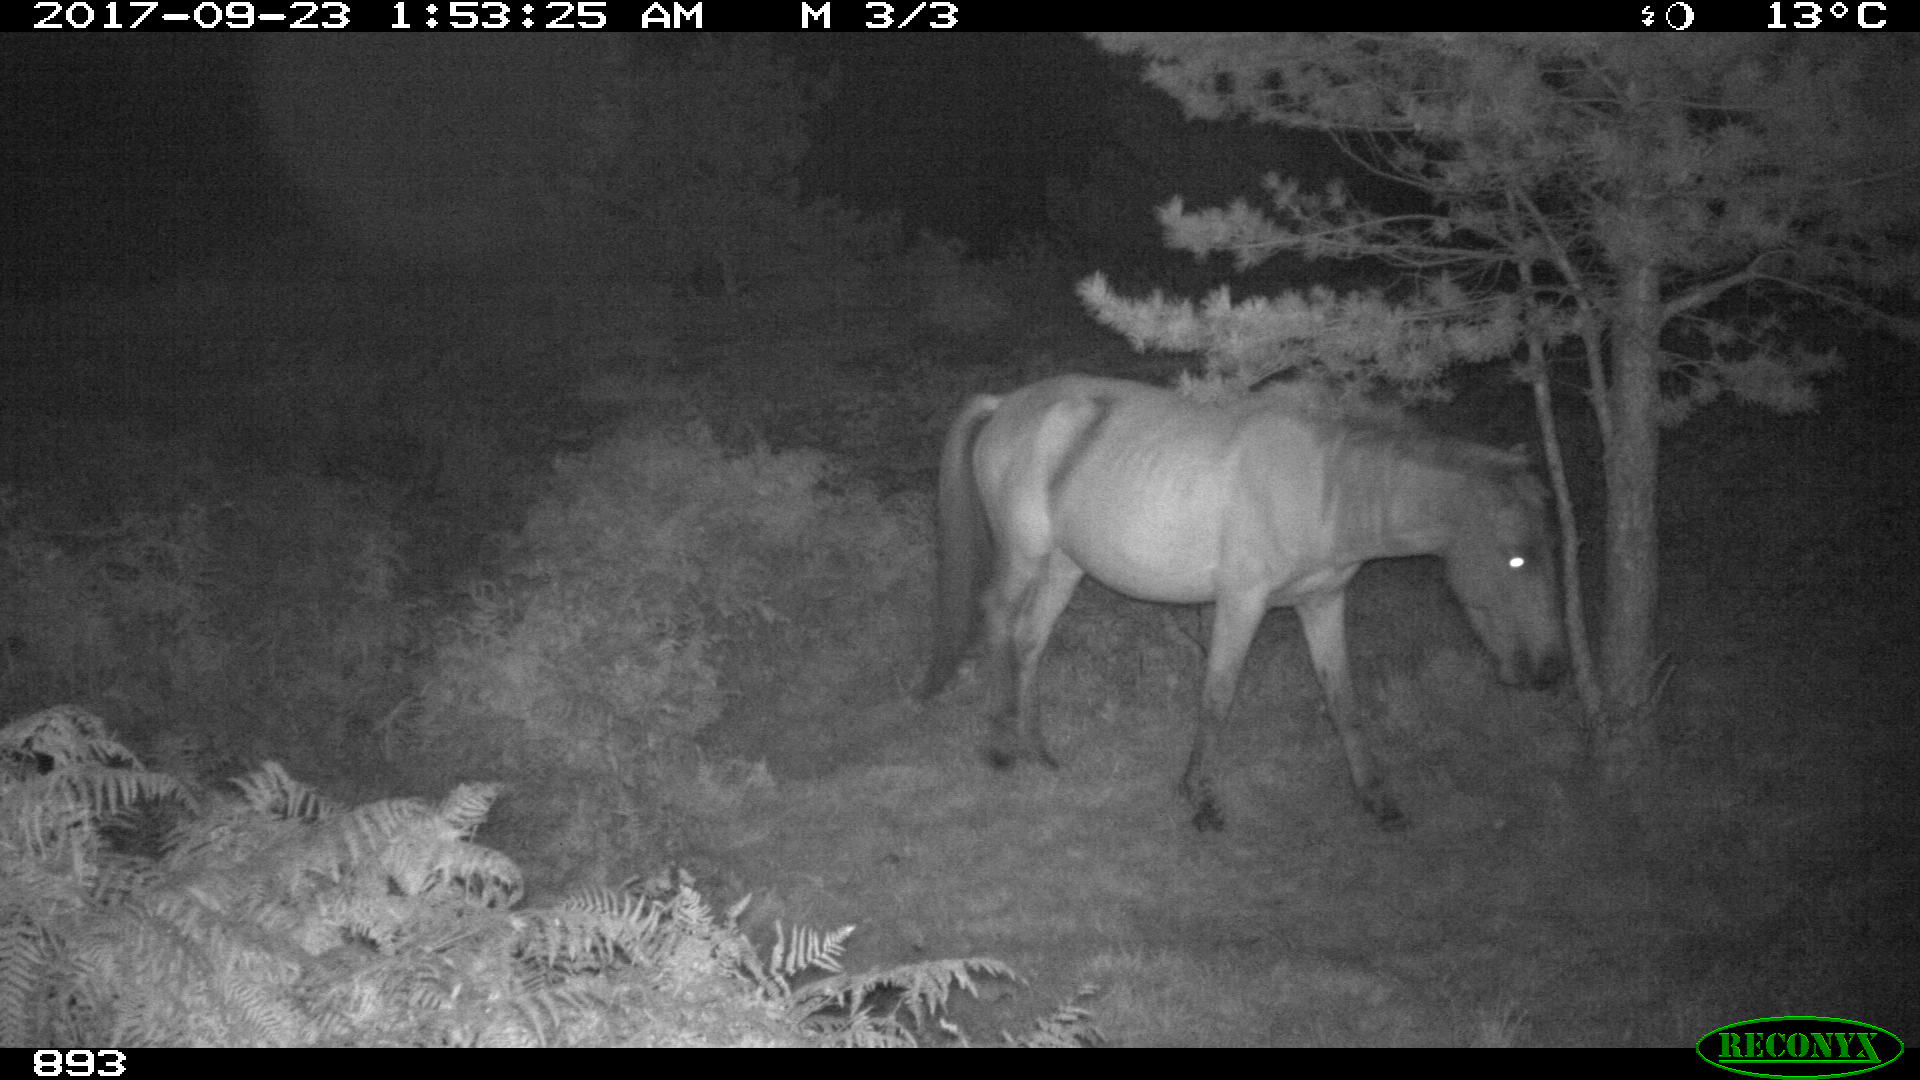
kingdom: Animalia
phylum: Chordata
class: Mammalia
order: Perissodactyla
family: Equidae
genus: Equus
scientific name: Equus caballus
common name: Horse
